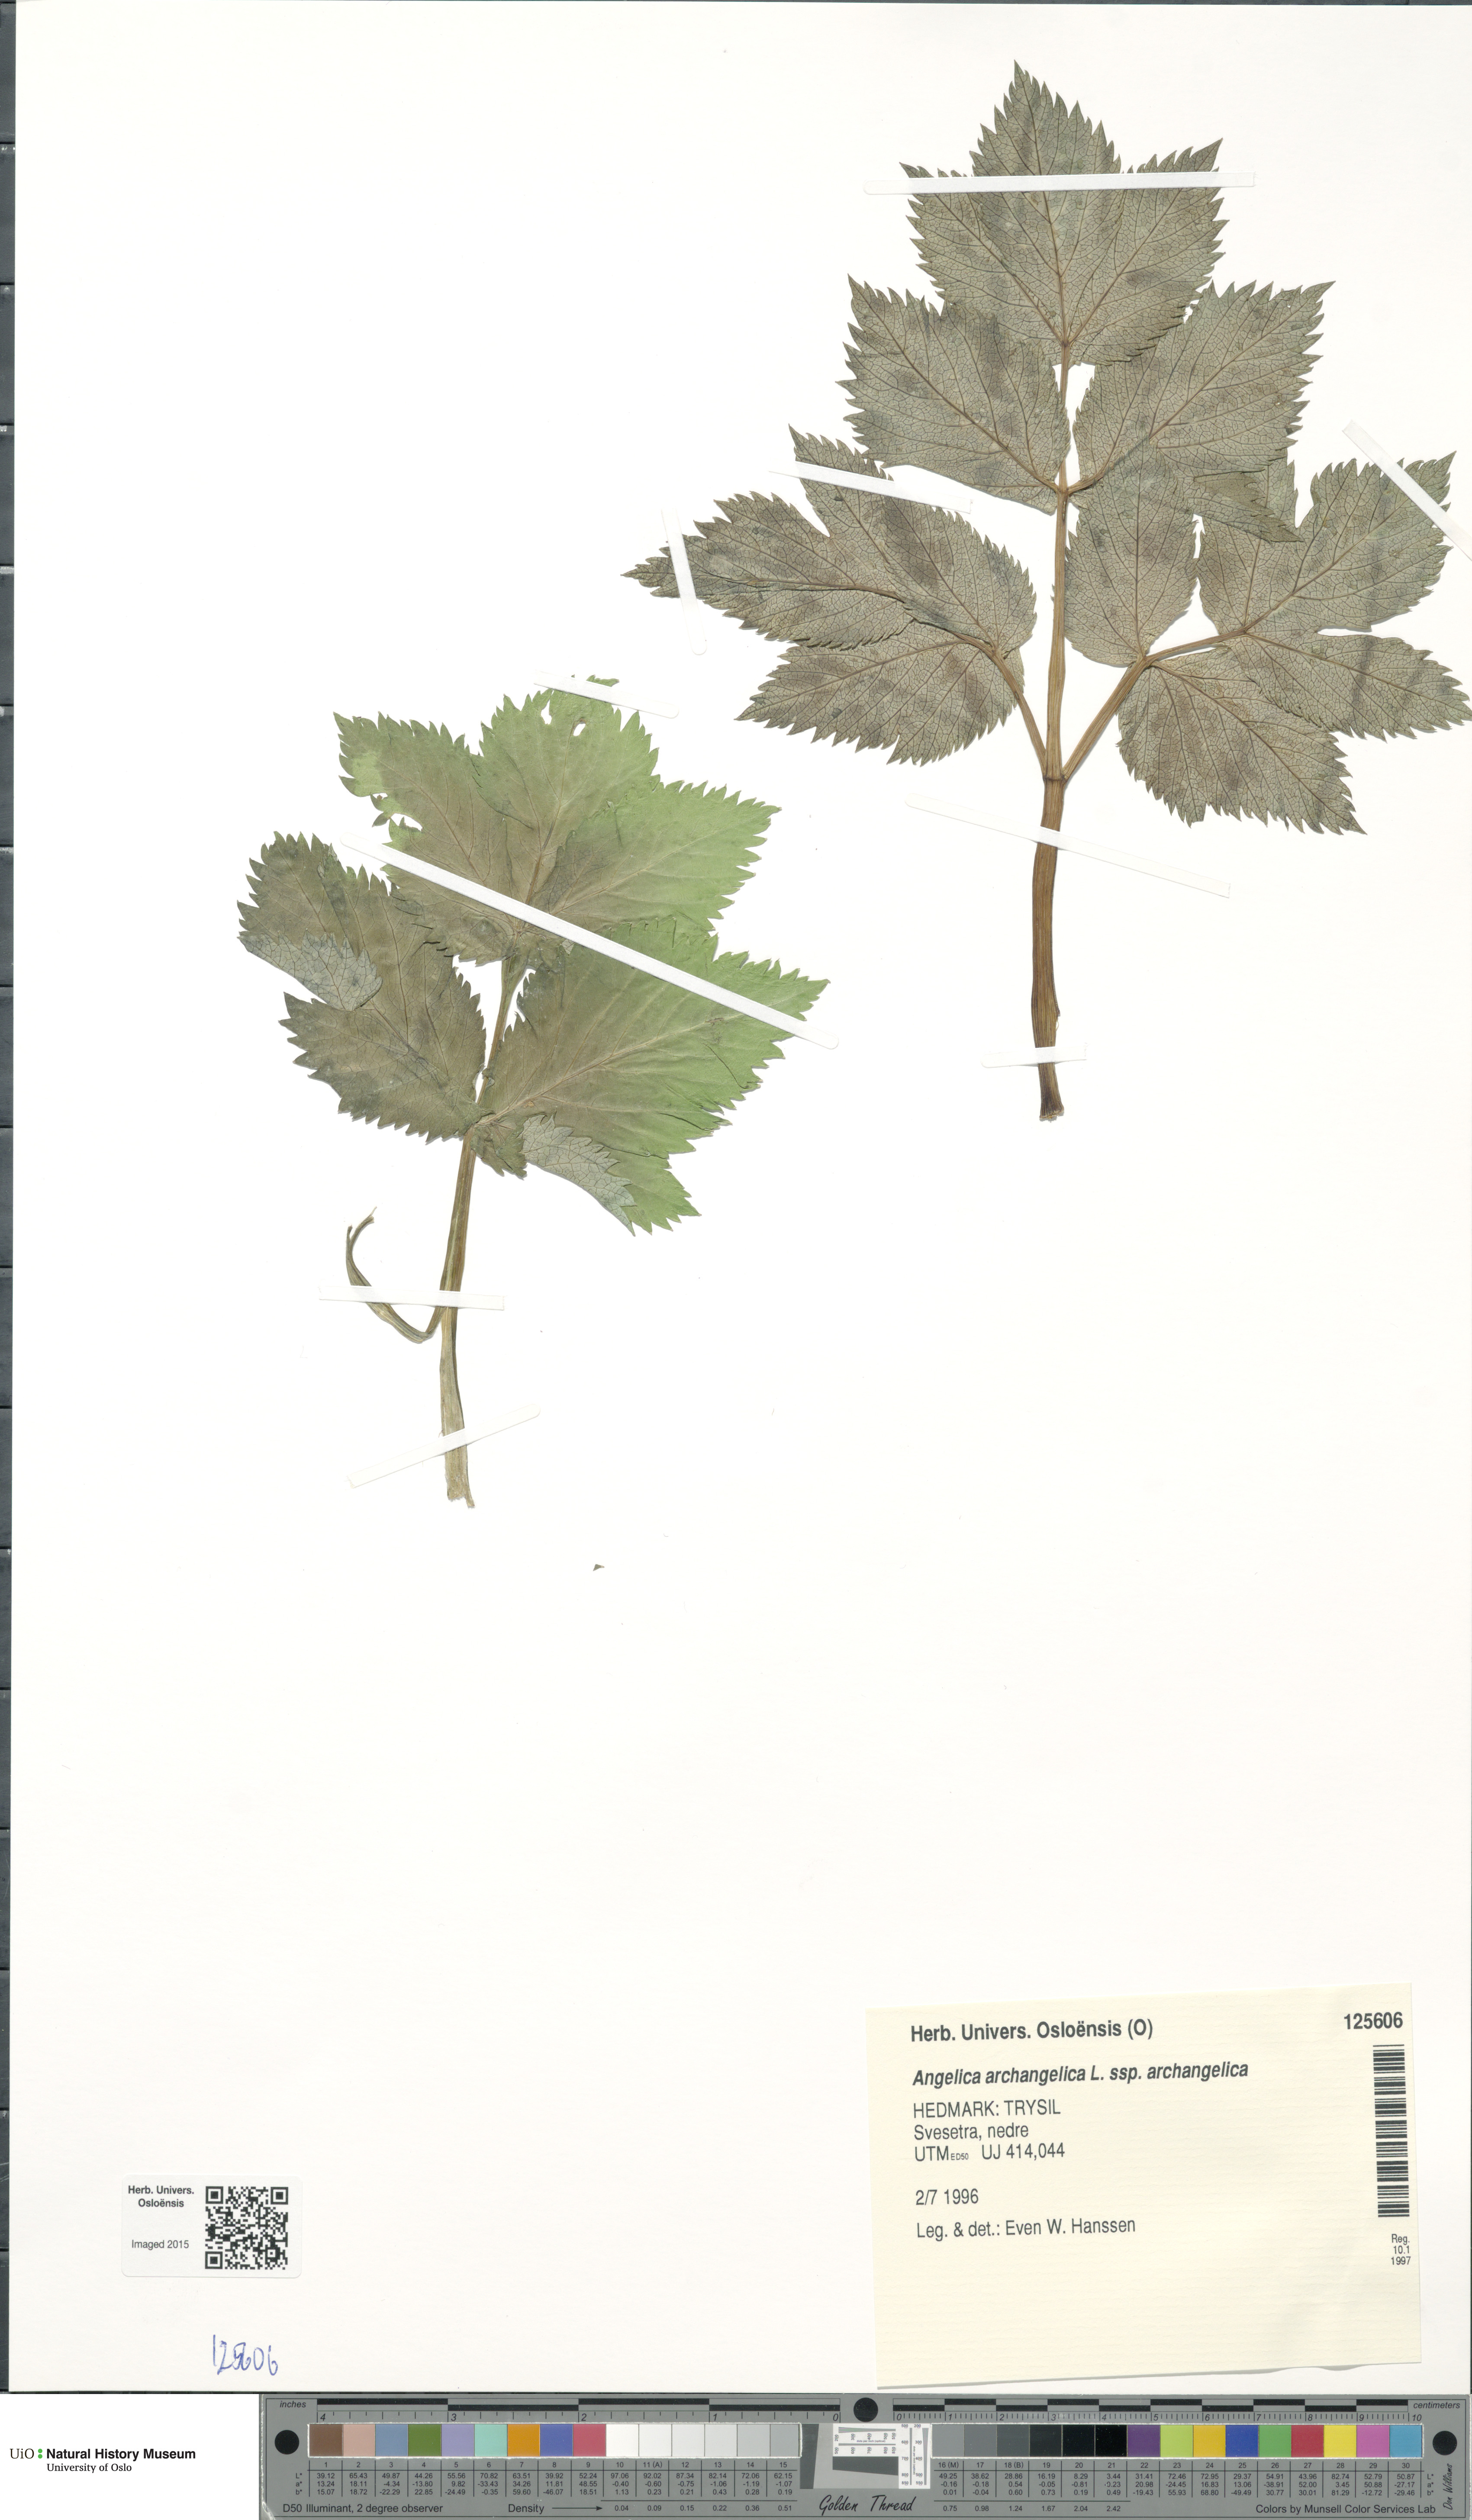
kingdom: Plantae
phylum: Tracheophyta
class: Magnoliopsida
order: Apiales
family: Apiaceae
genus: Angelica
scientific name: Angelica archangelica
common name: Garden angelica
